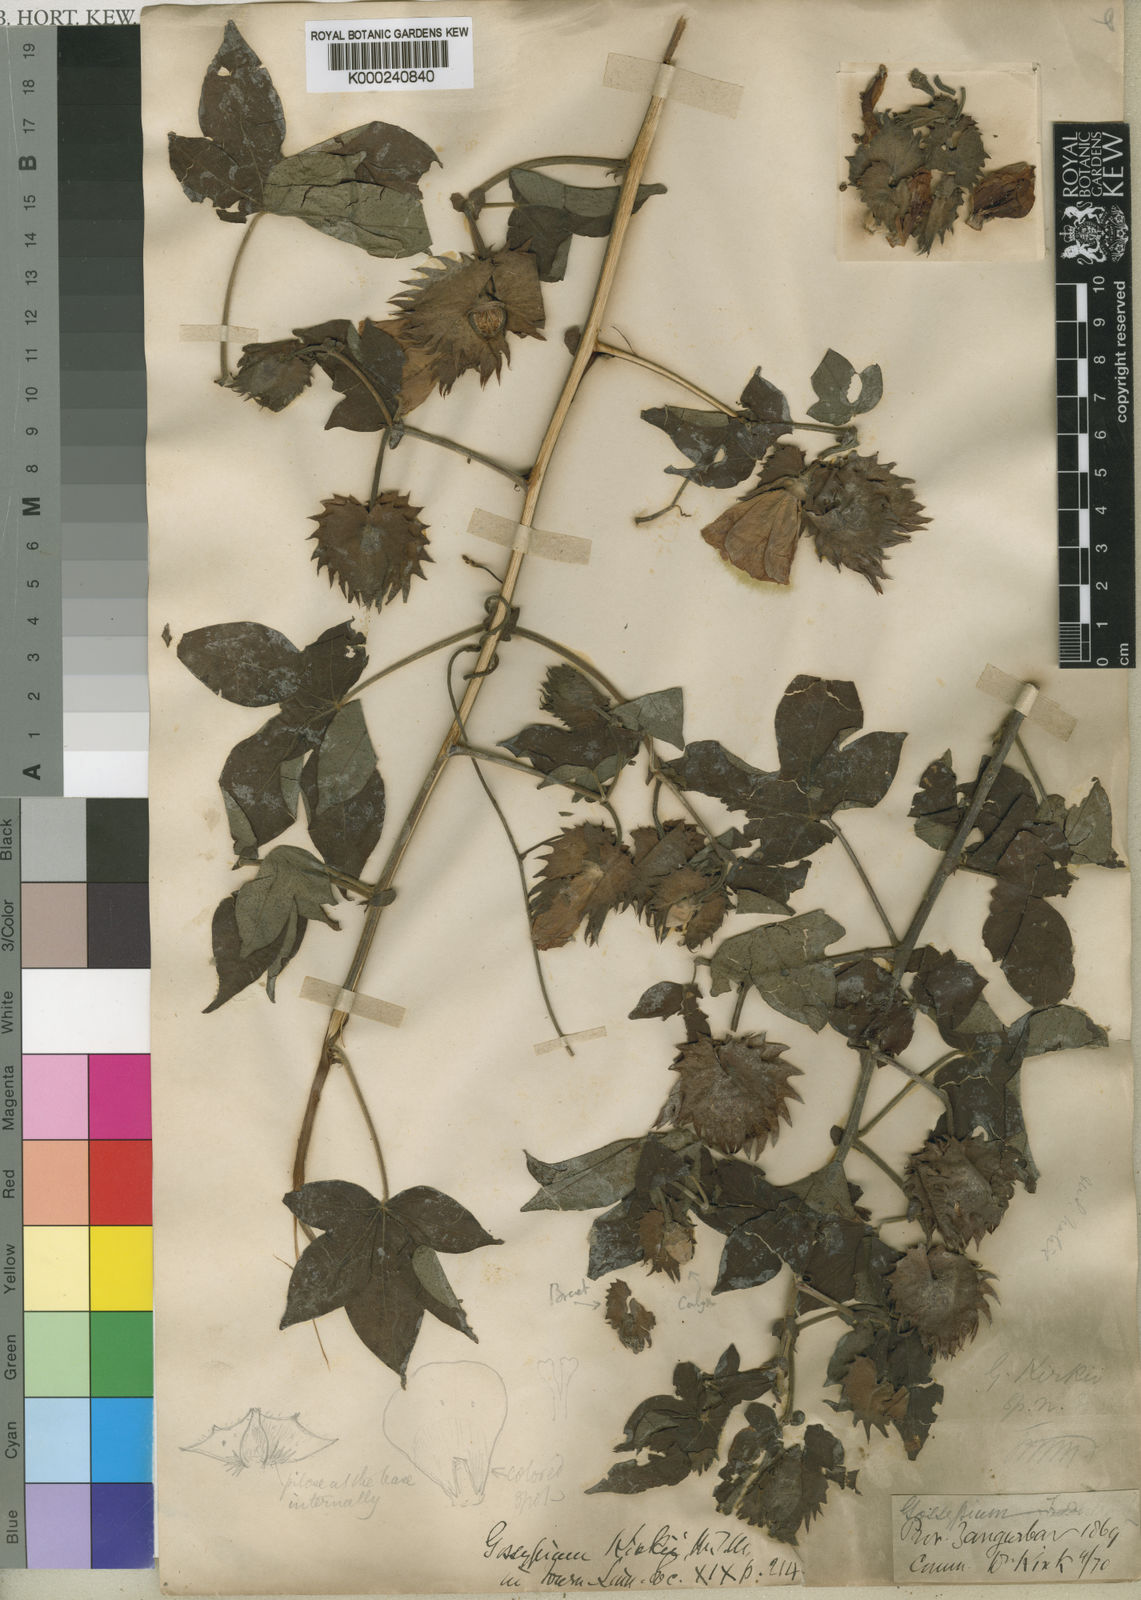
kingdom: Plantae
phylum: Tracheophyta
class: Magnoliopsida
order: Malvales
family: Malvaceae
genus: Gossypioides
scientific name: Gossypioides
